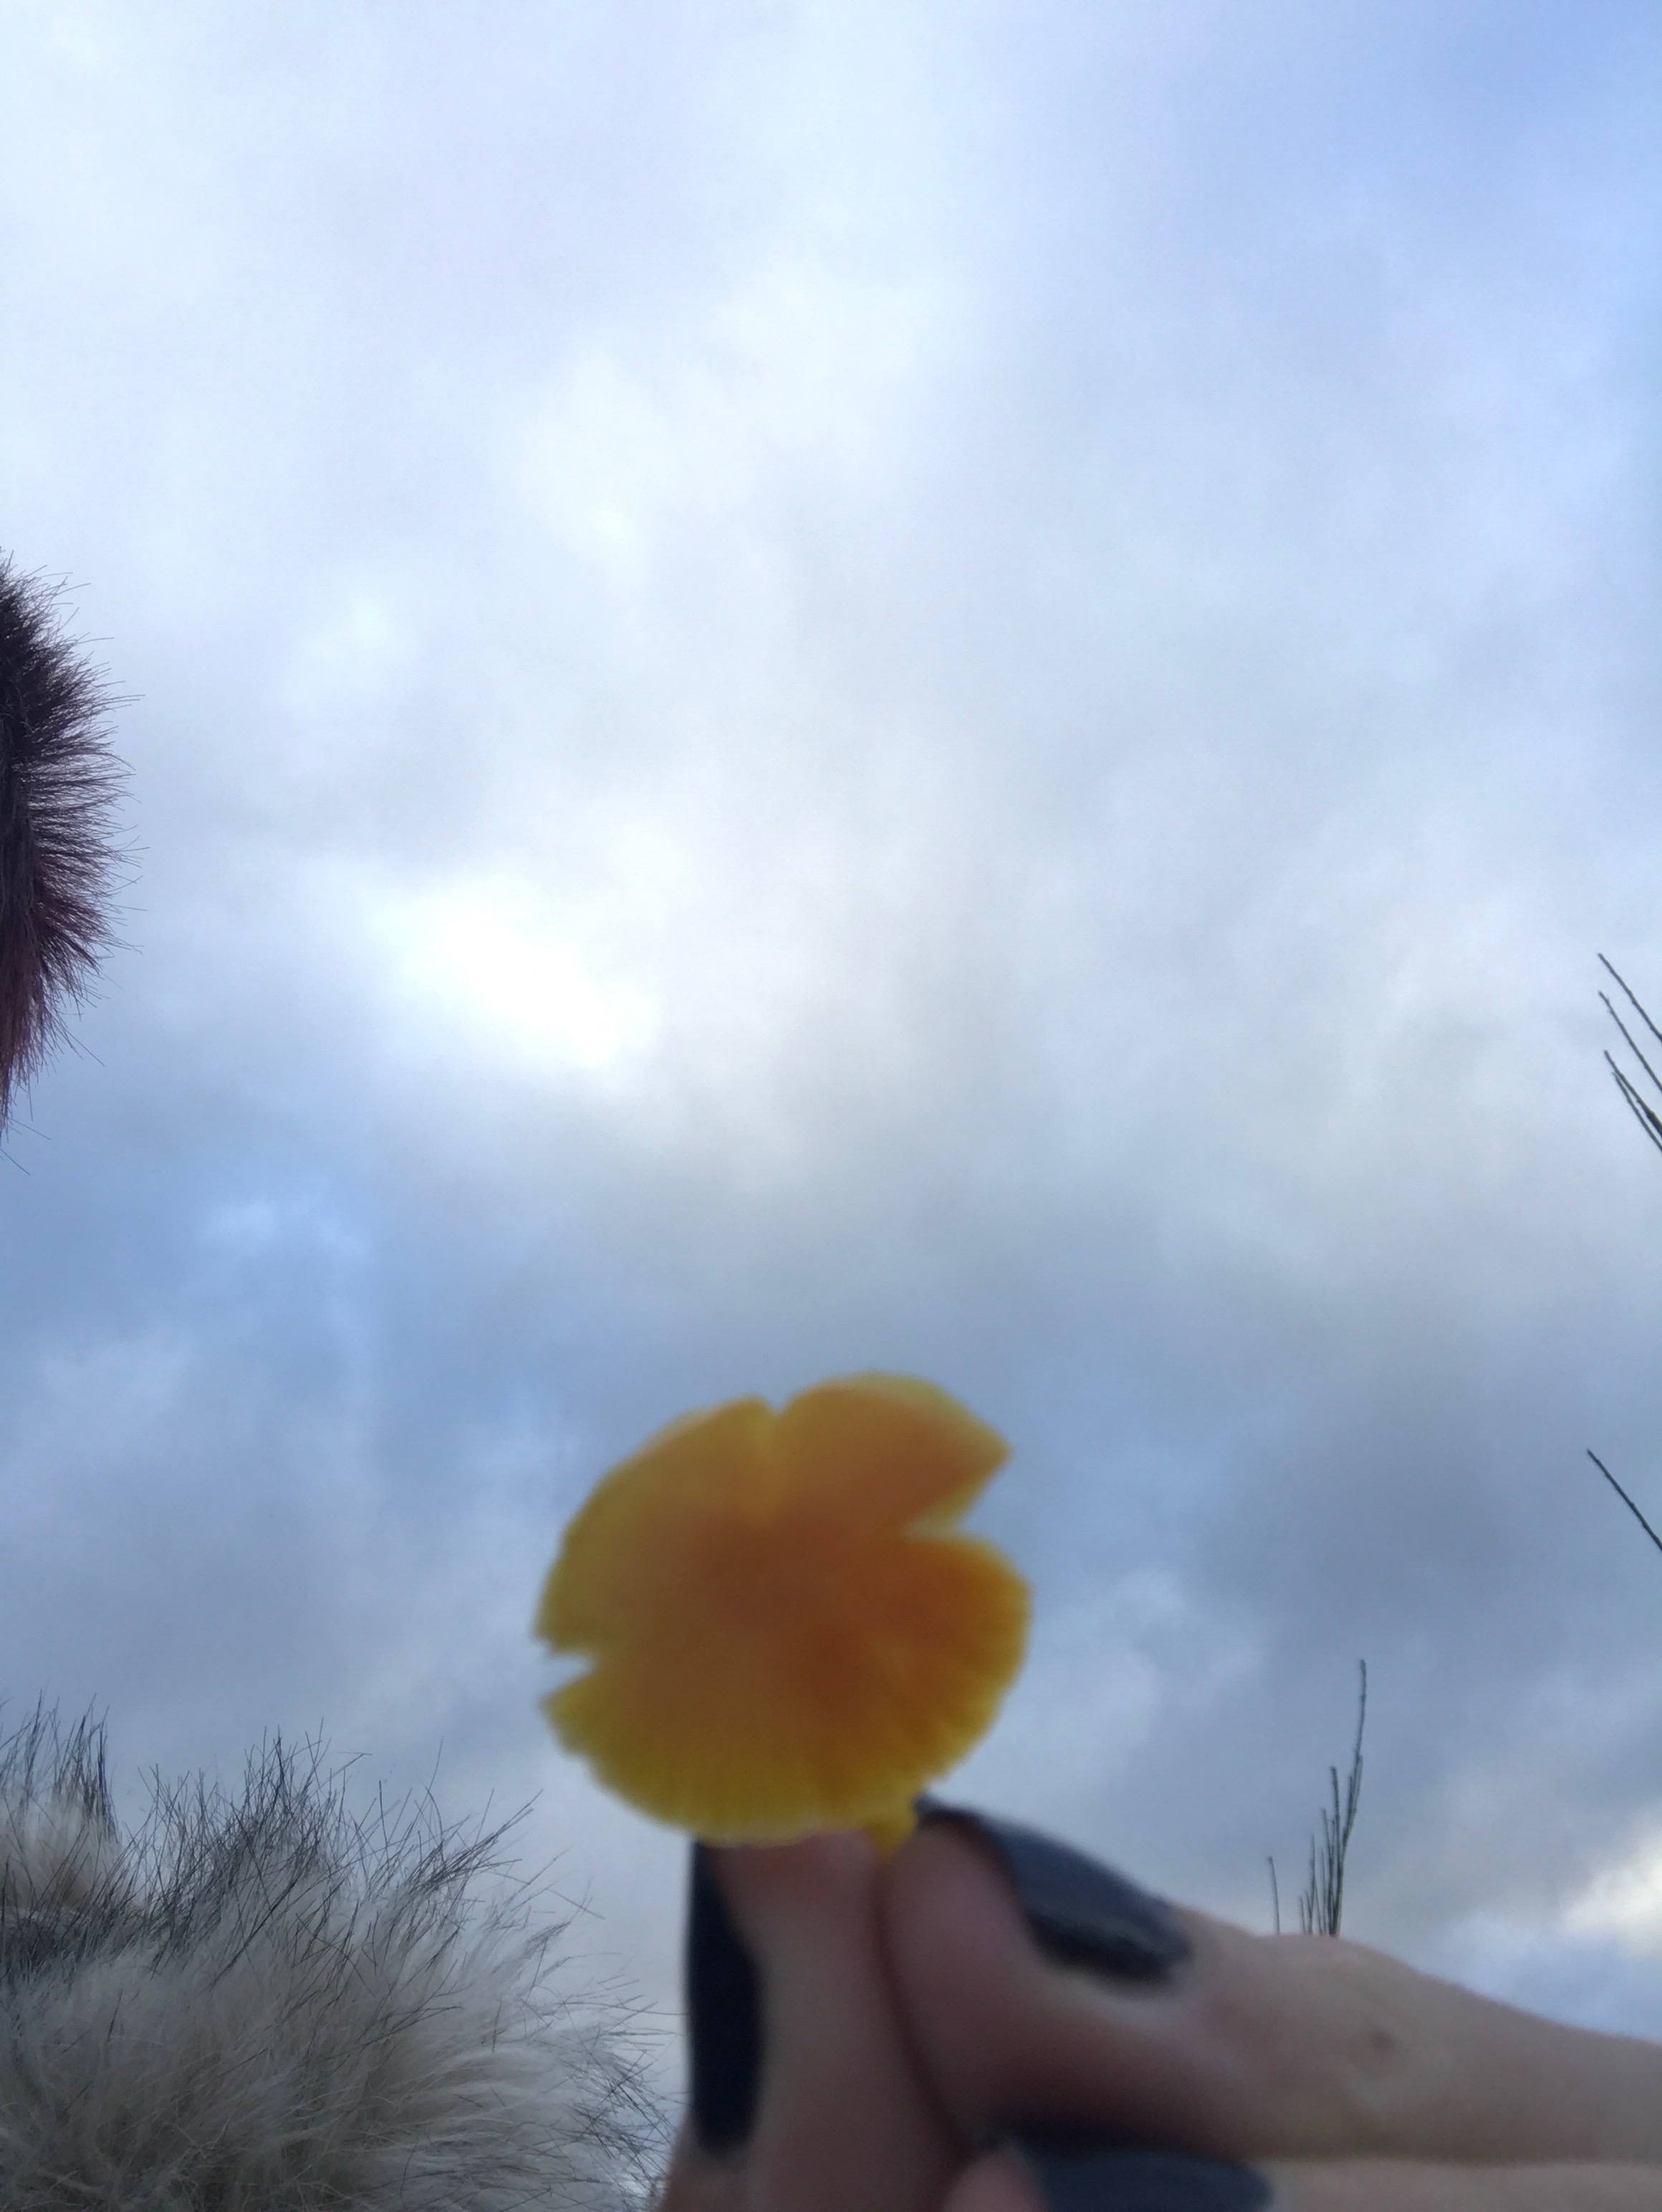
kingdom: Fungi
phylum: Basidiomycota
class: Agaricomycetes
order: Agaricales
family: Hygrophoraceae
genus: Hygrocybe
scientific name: Hygrocybe ceracea
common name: voksgul vokshat
